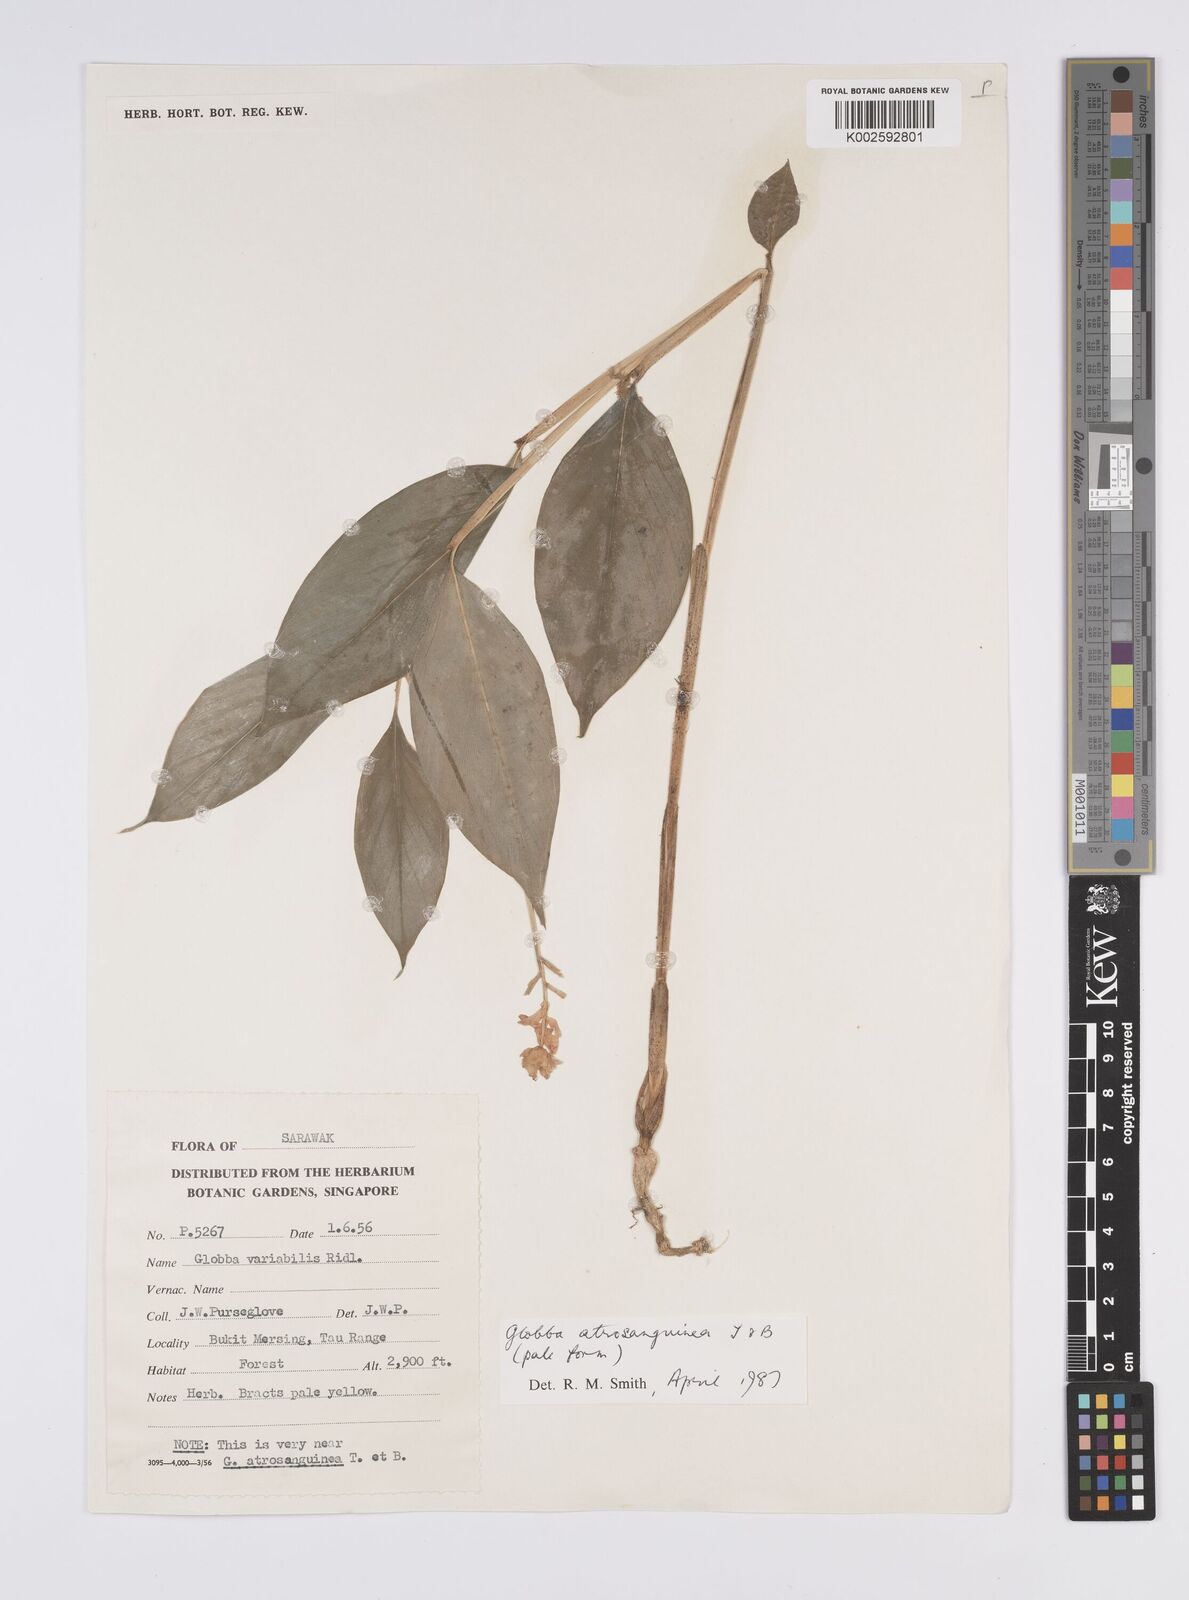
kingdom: Plantae
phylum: Tracheophyta
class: Liliopsida
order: Zingiberales
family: Zingiberaceae
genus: Globba
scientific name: Globba atrosanguinea
